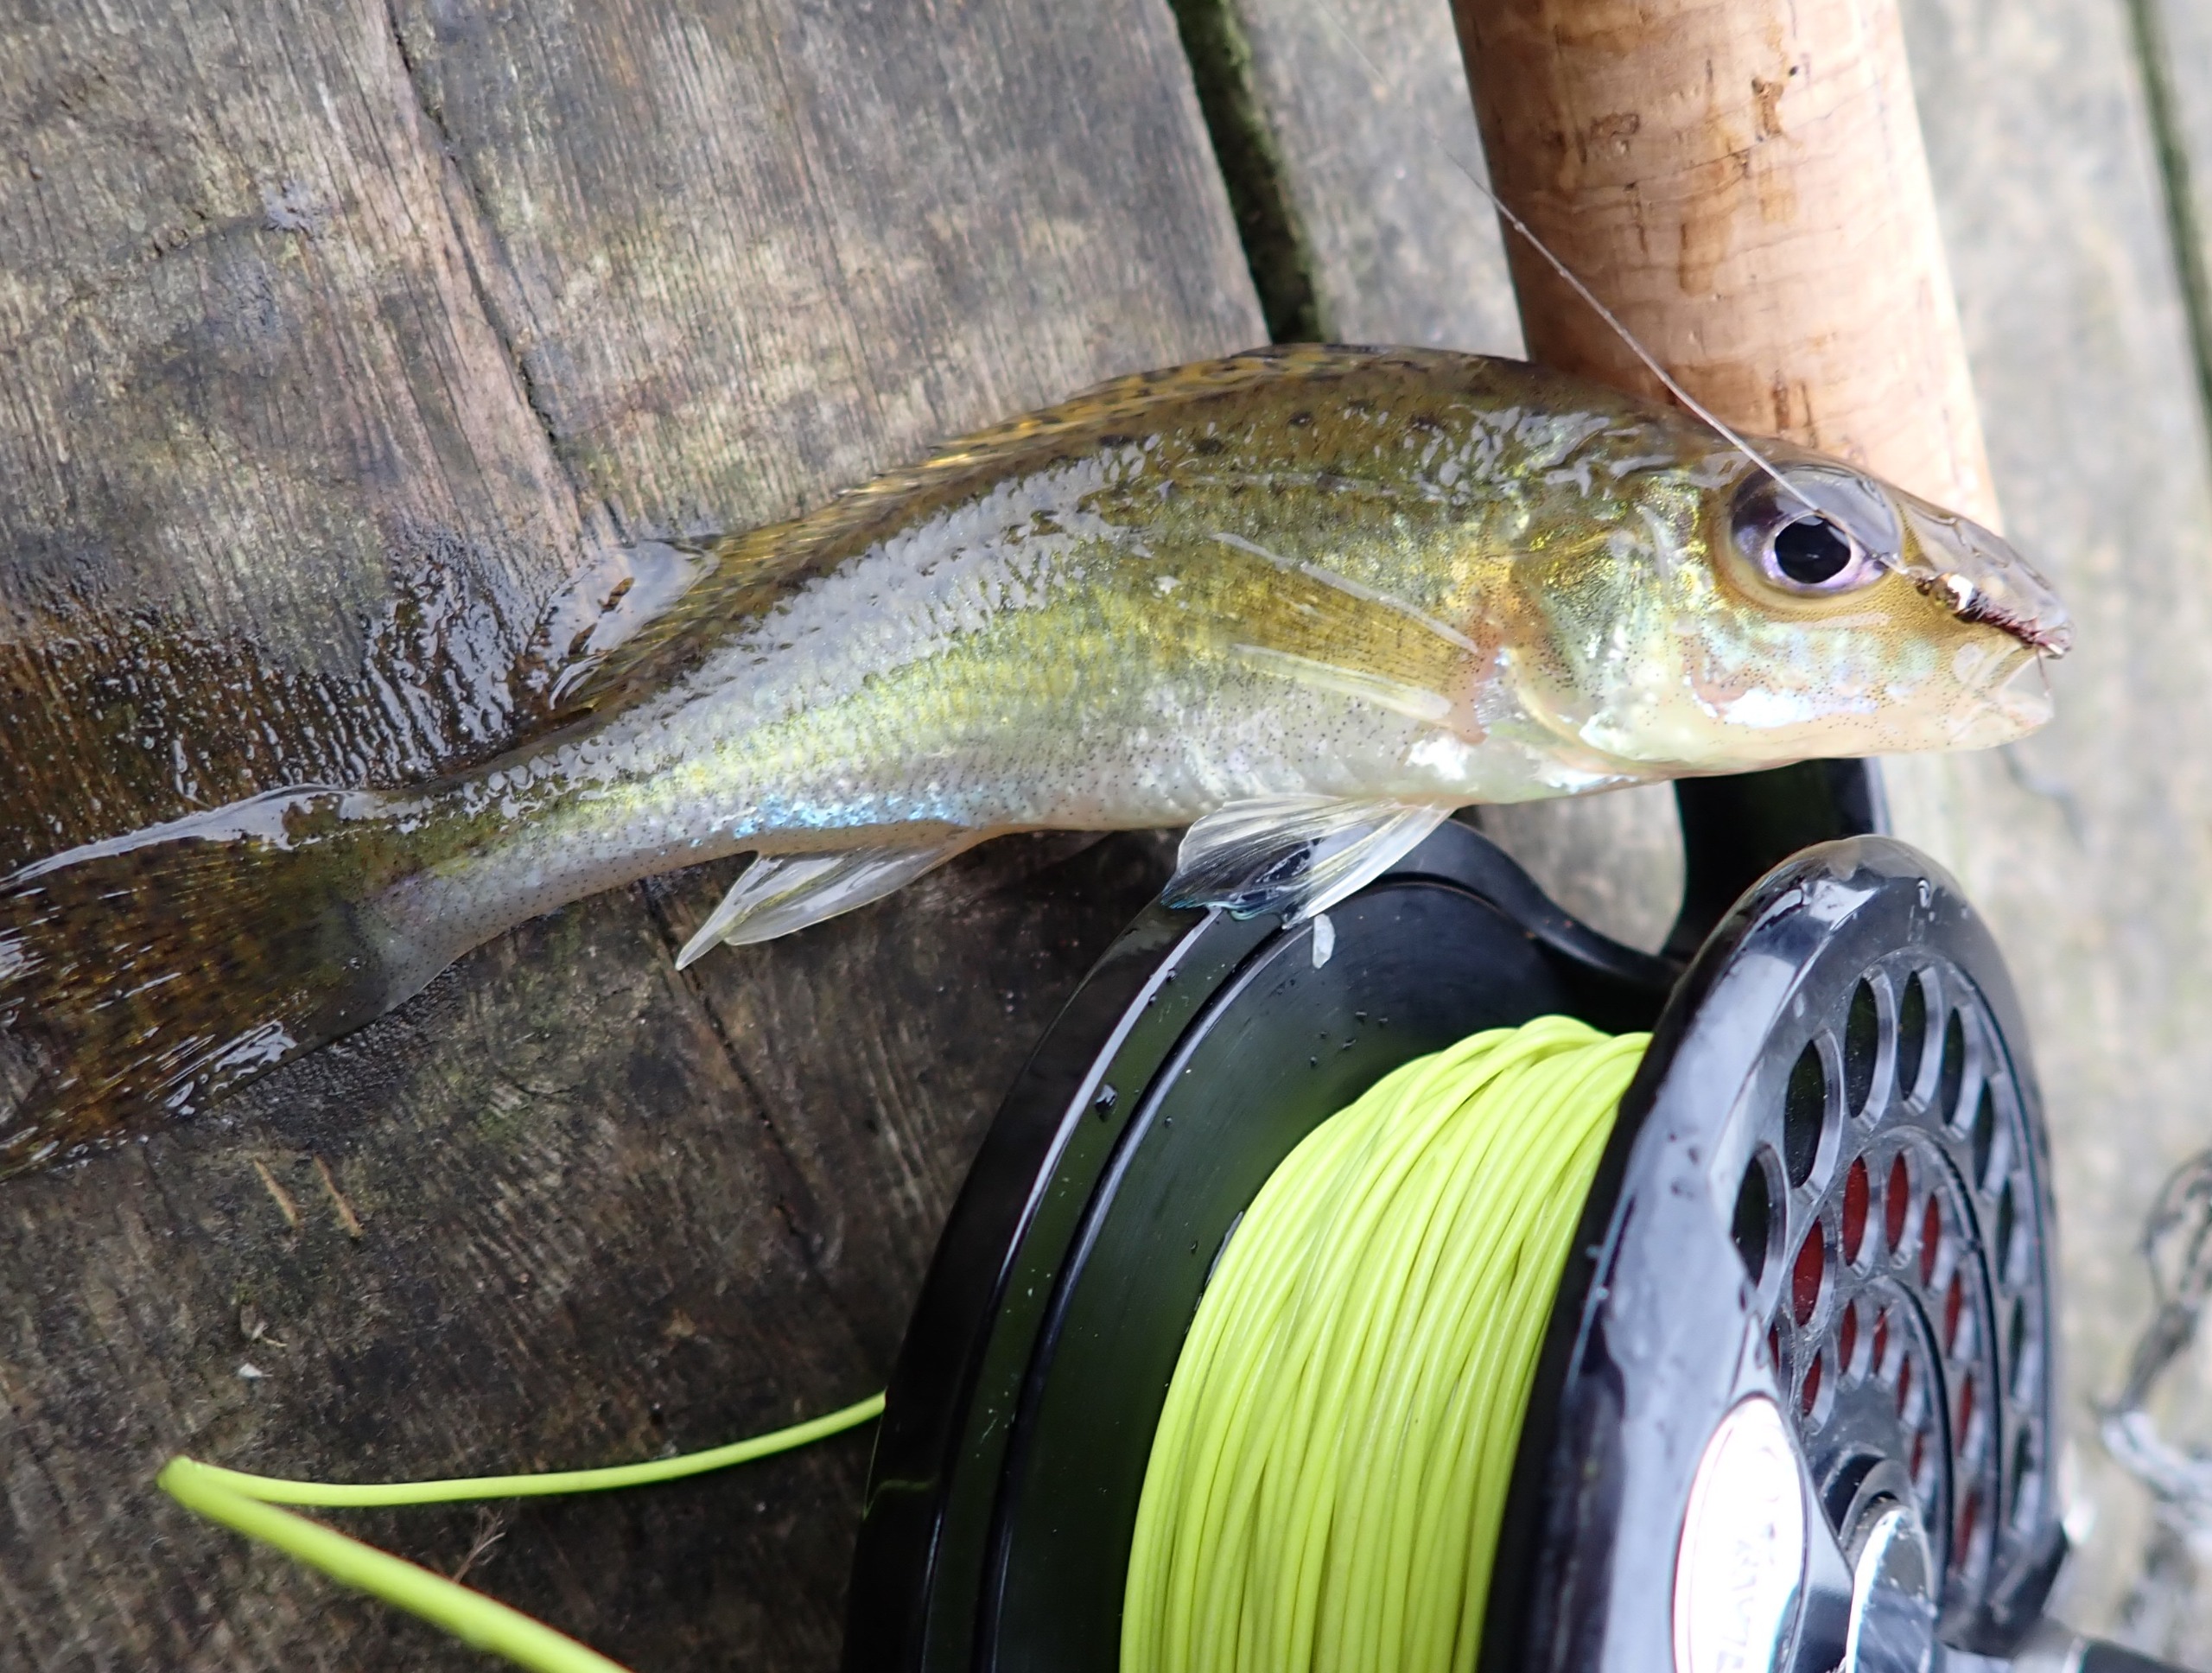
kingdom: Animalia
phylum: Chordata
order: Perciformes
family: Percidae
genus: Gymnocephalus
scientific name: Gymnocephalus cernua
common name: Hork
